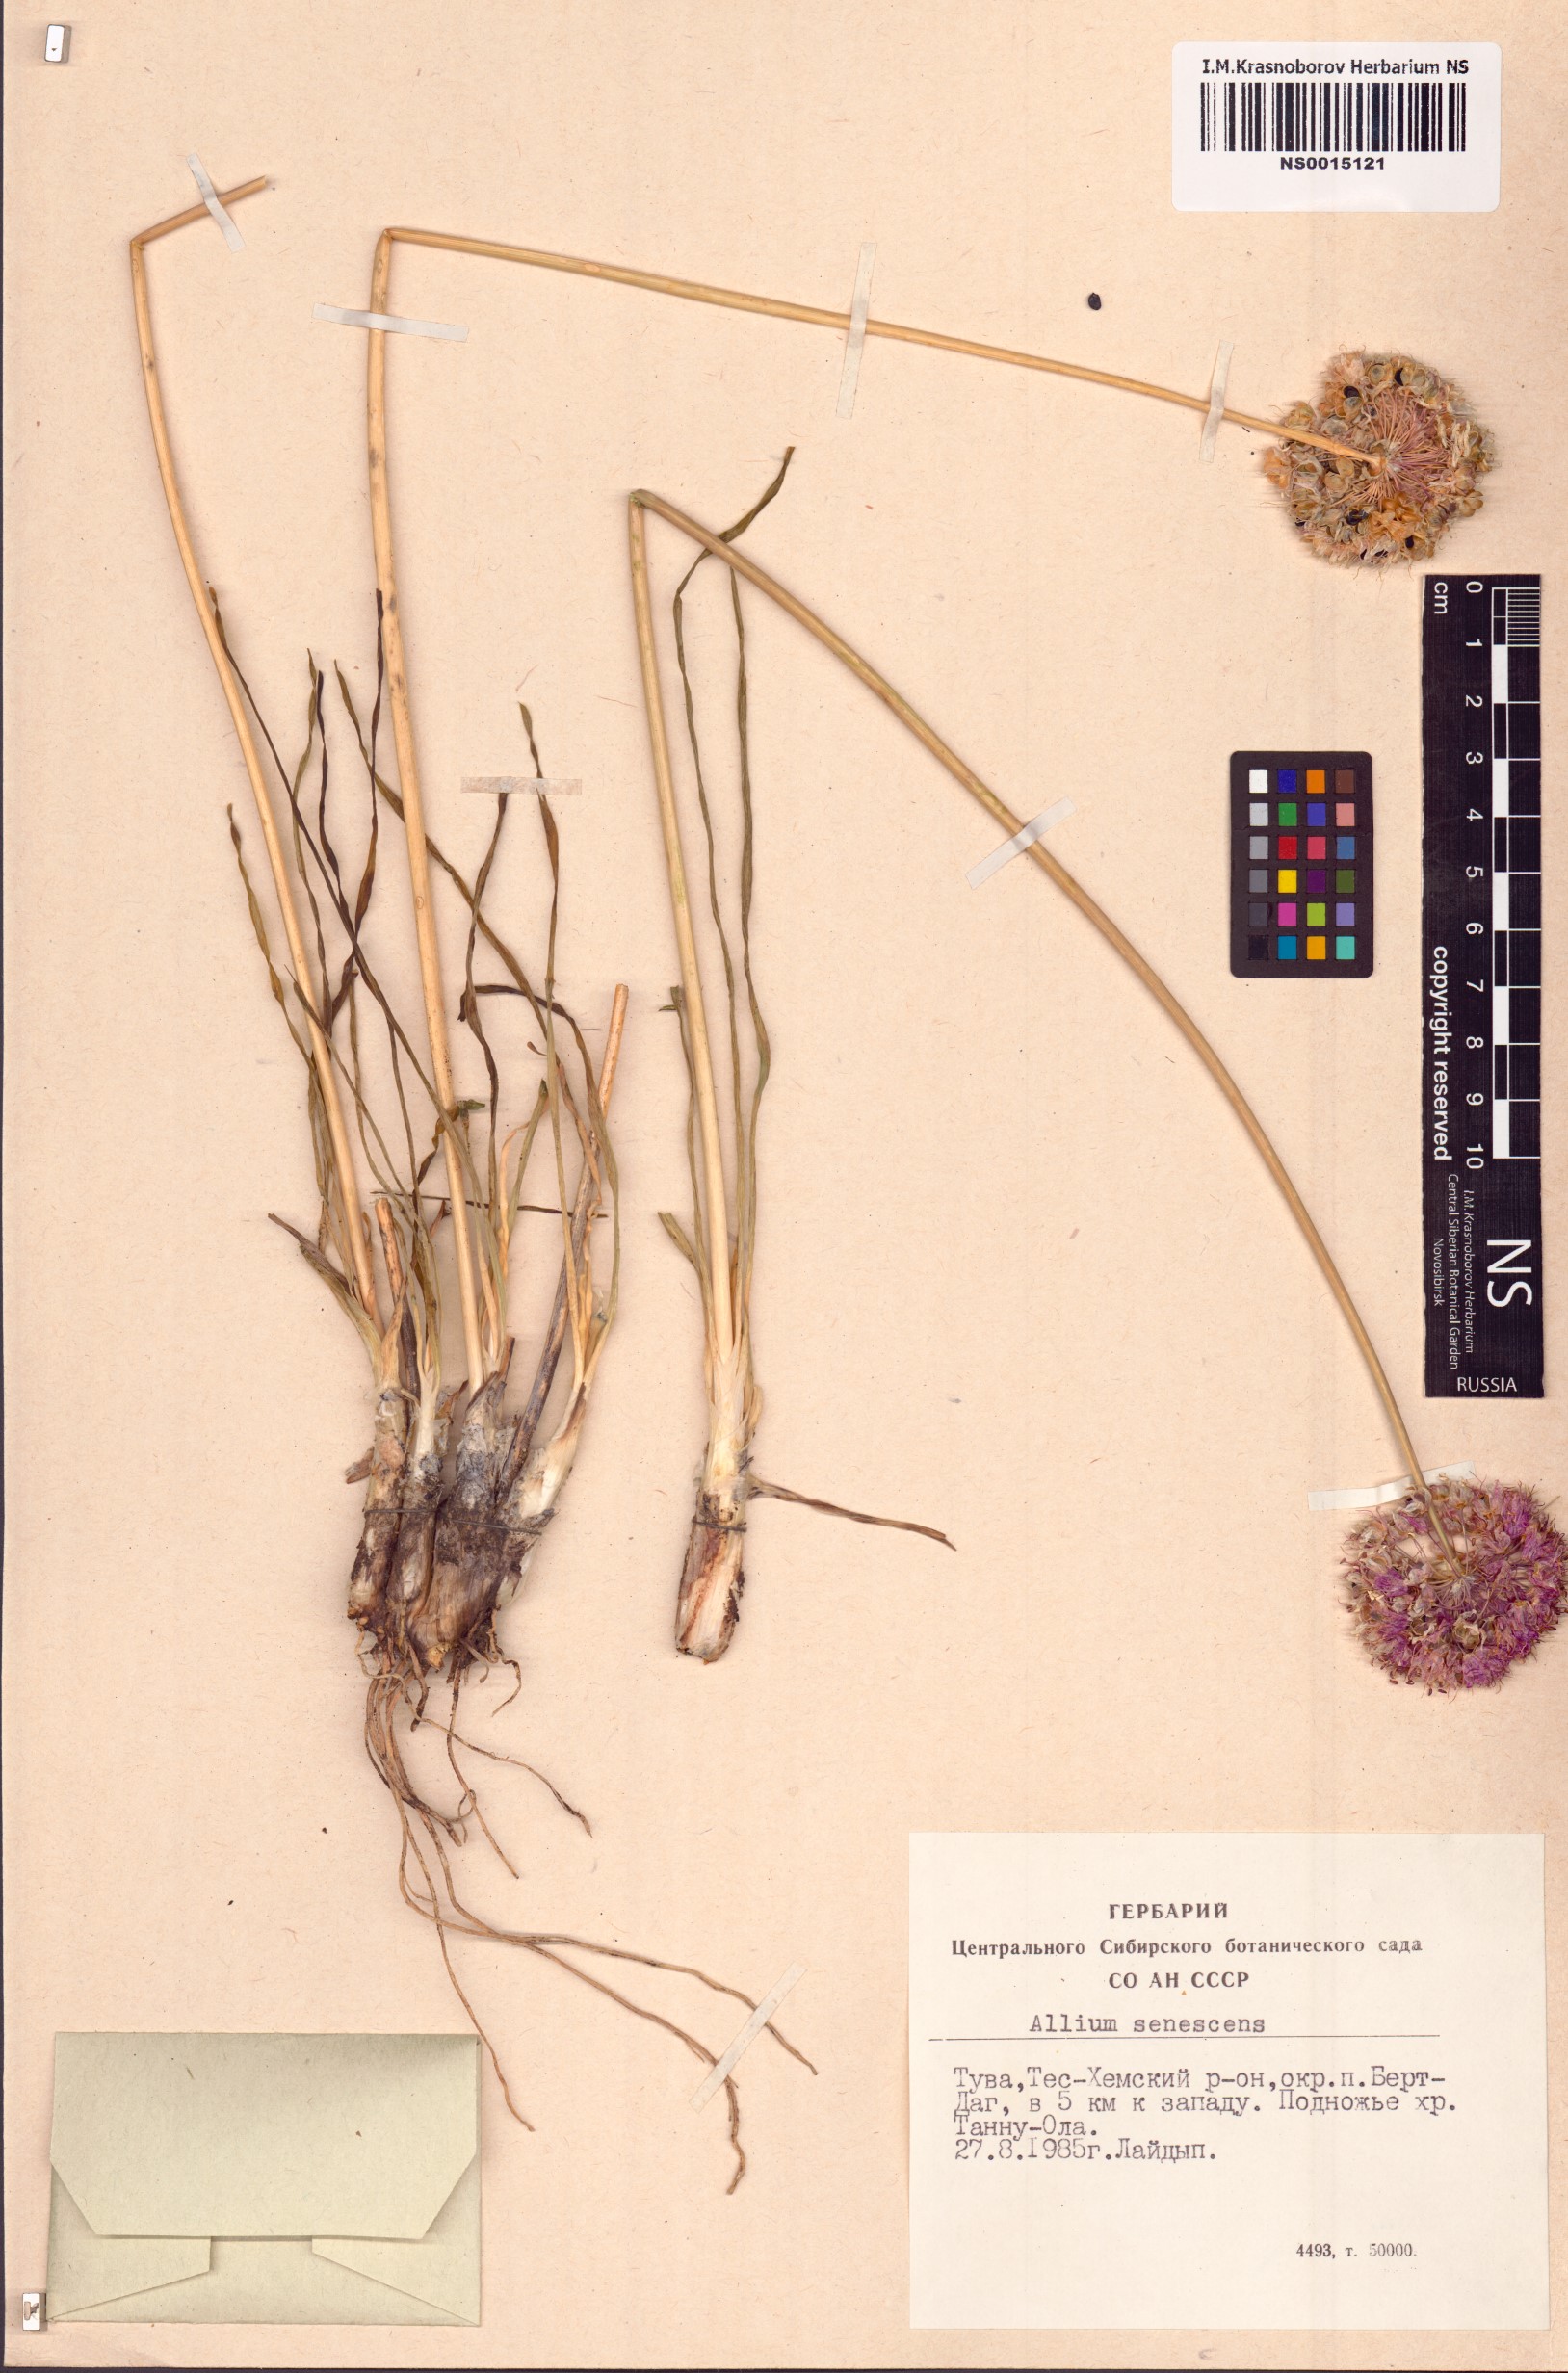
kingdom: Plantae
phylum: Tracheophyta
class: Liliopsida
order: Asparagales
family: Amaryllidaceae
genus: Allium
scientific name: Allium senescens
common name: German garlic
